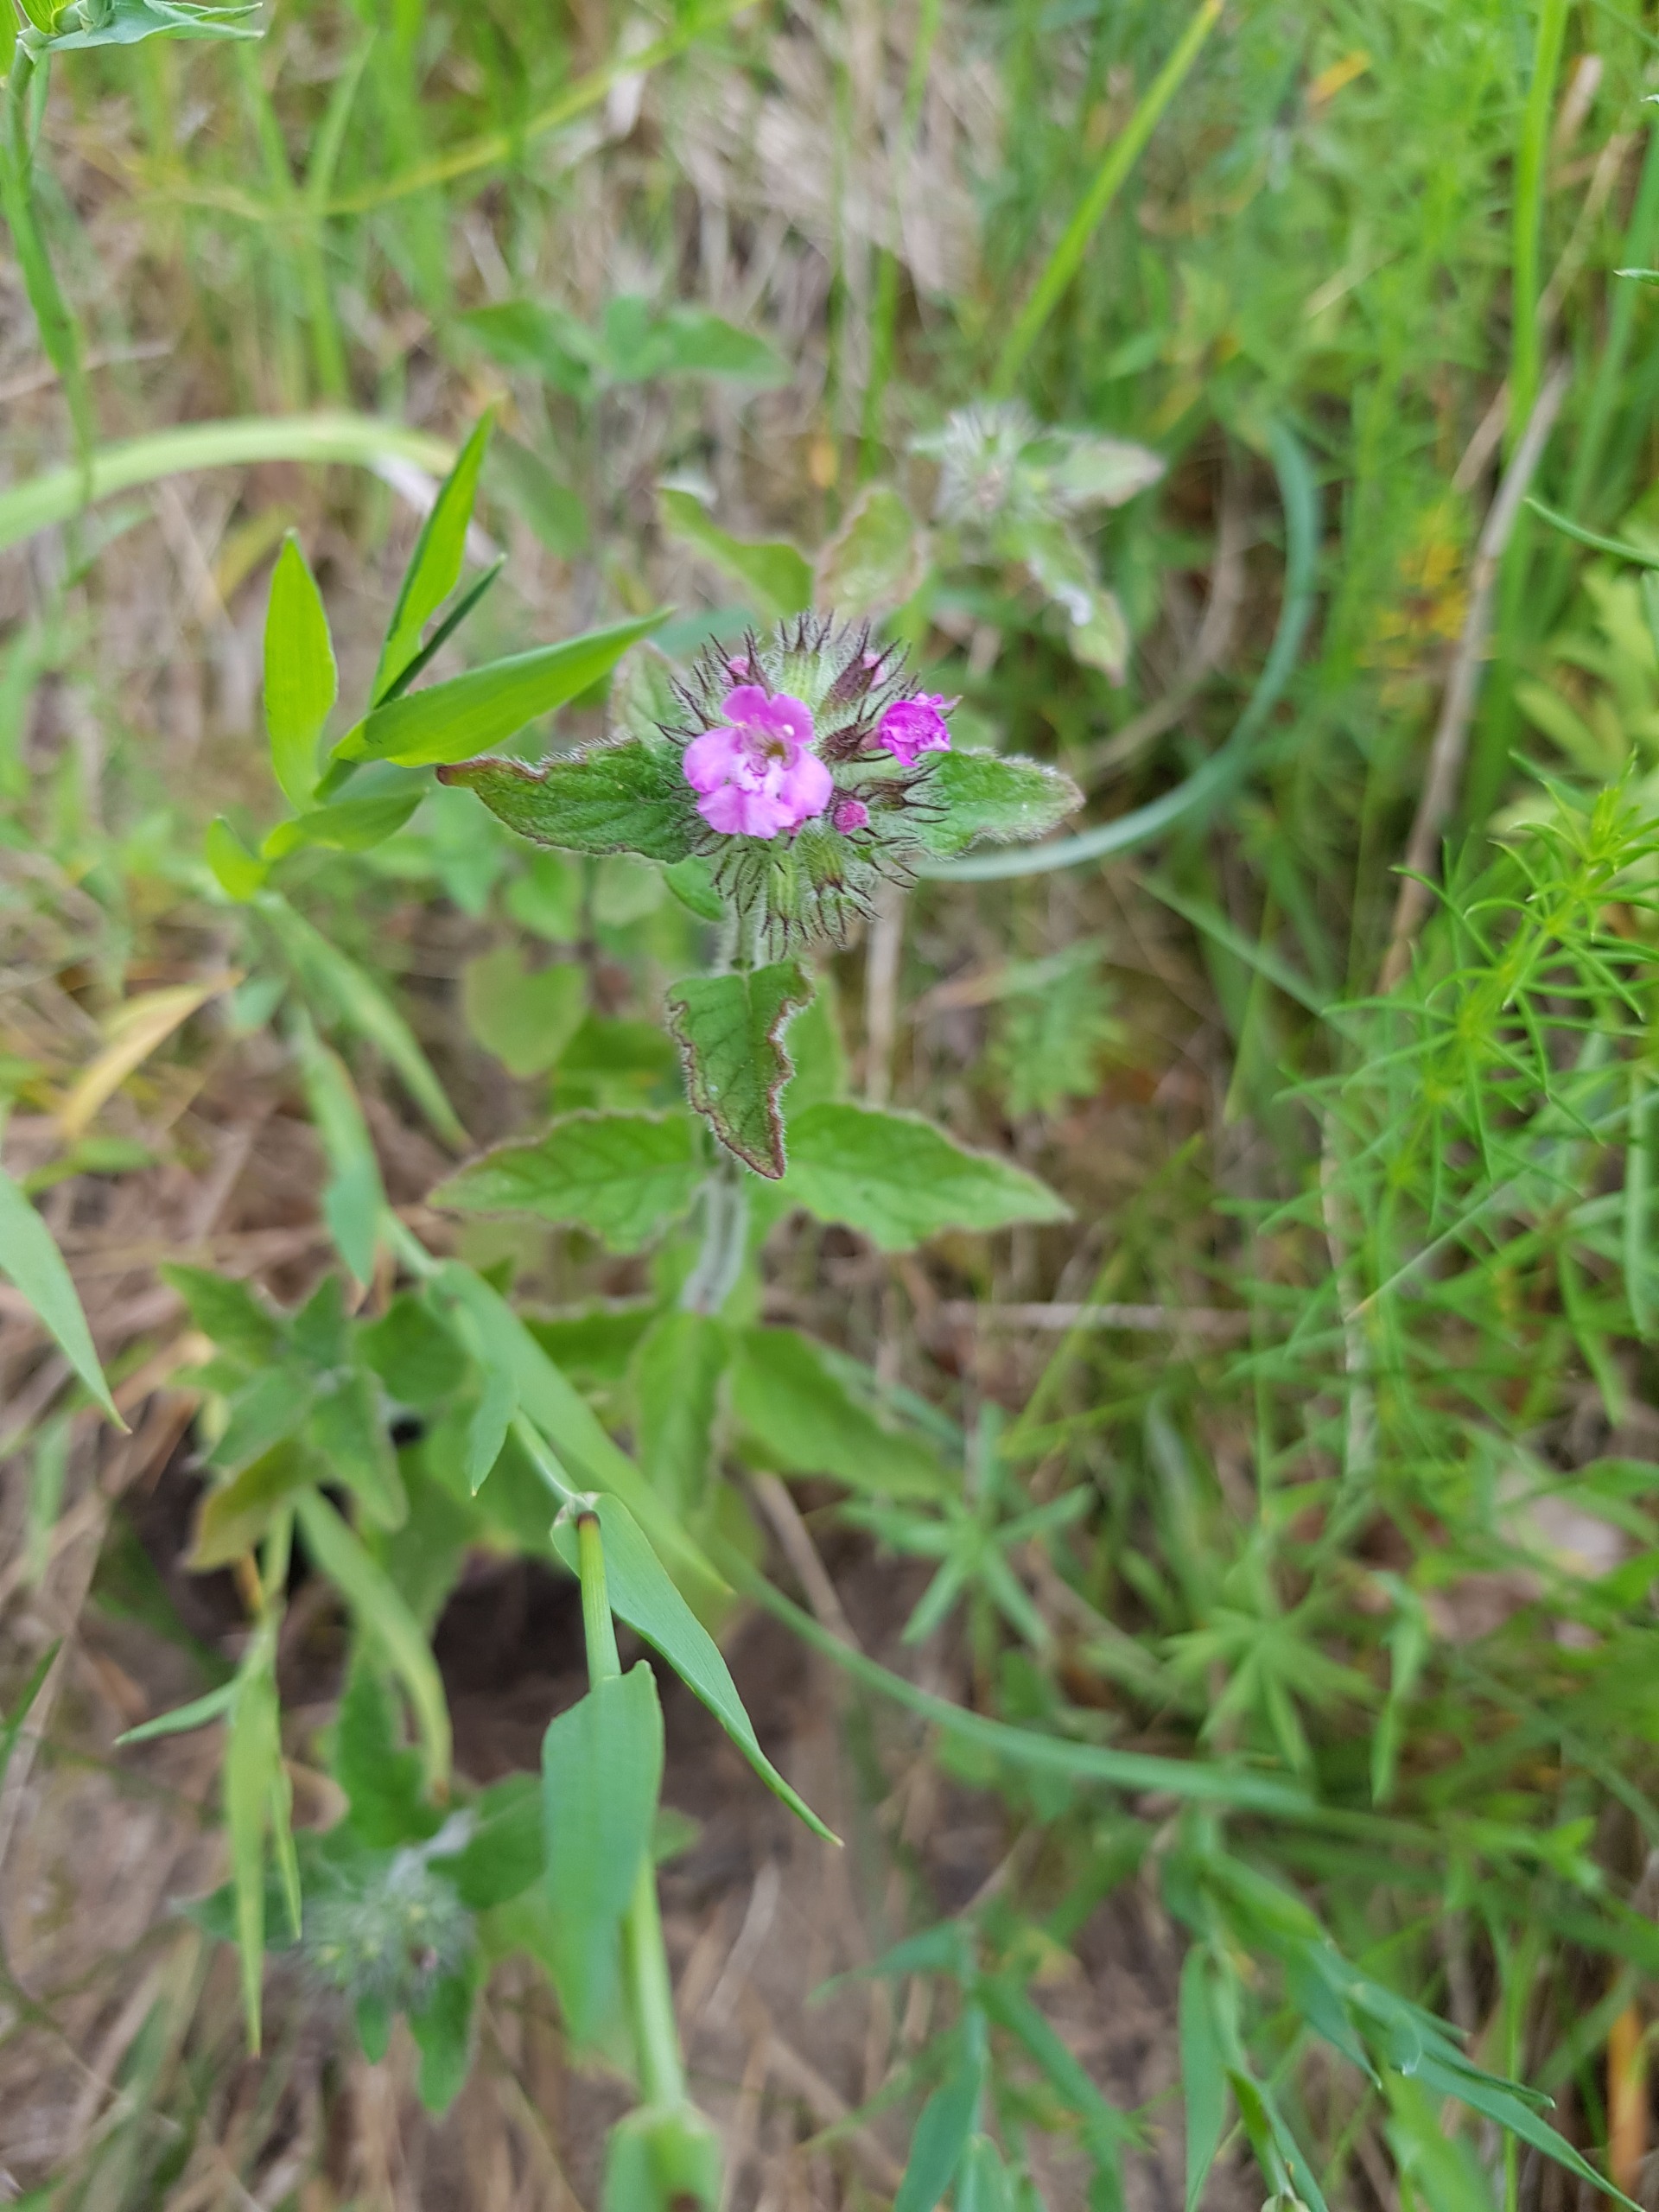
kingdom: Plantae
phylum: Tracheophyta
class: Magnoliopsida
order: Lamiales
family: Lamiaceae
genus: Clinopodium
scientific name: Clinopodium vulgare
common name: Kransbørste
